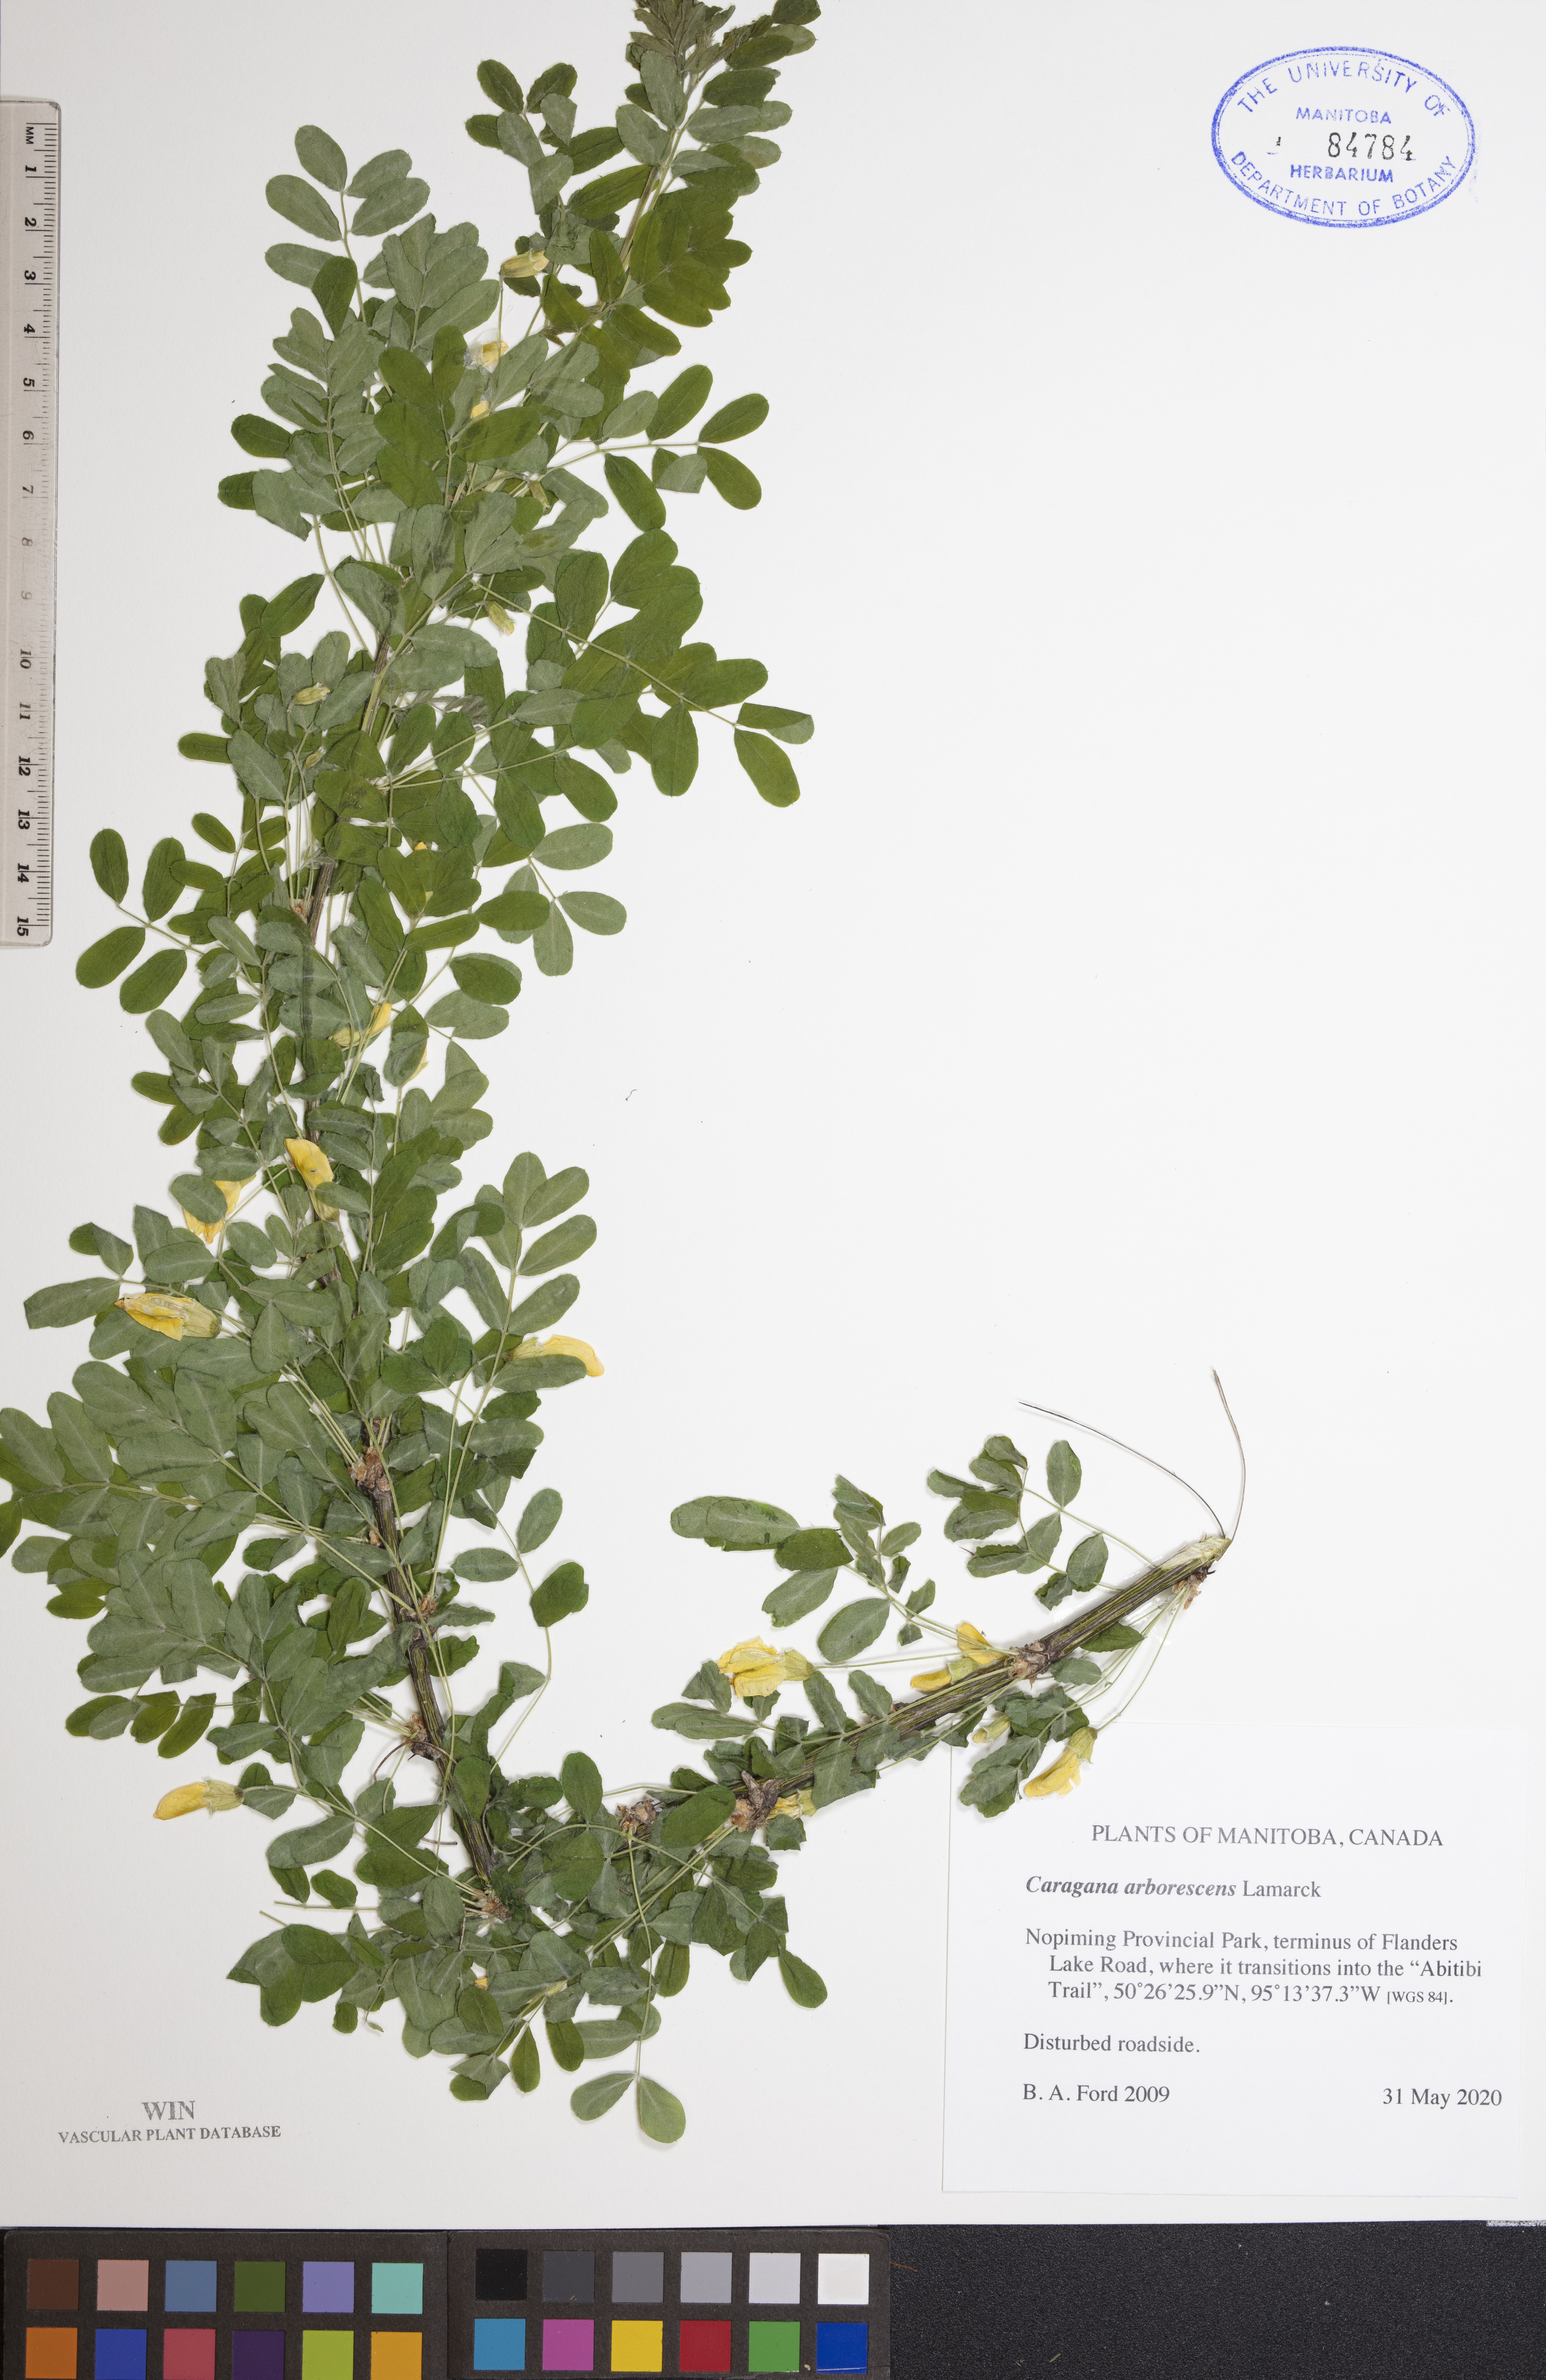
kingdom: Plantae
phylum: Tracheophyta
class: Magnoliopsida
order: Fabales
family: Fabaceae
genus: Caragana
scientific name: Caragana arborescens
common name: Siberian peashrub
